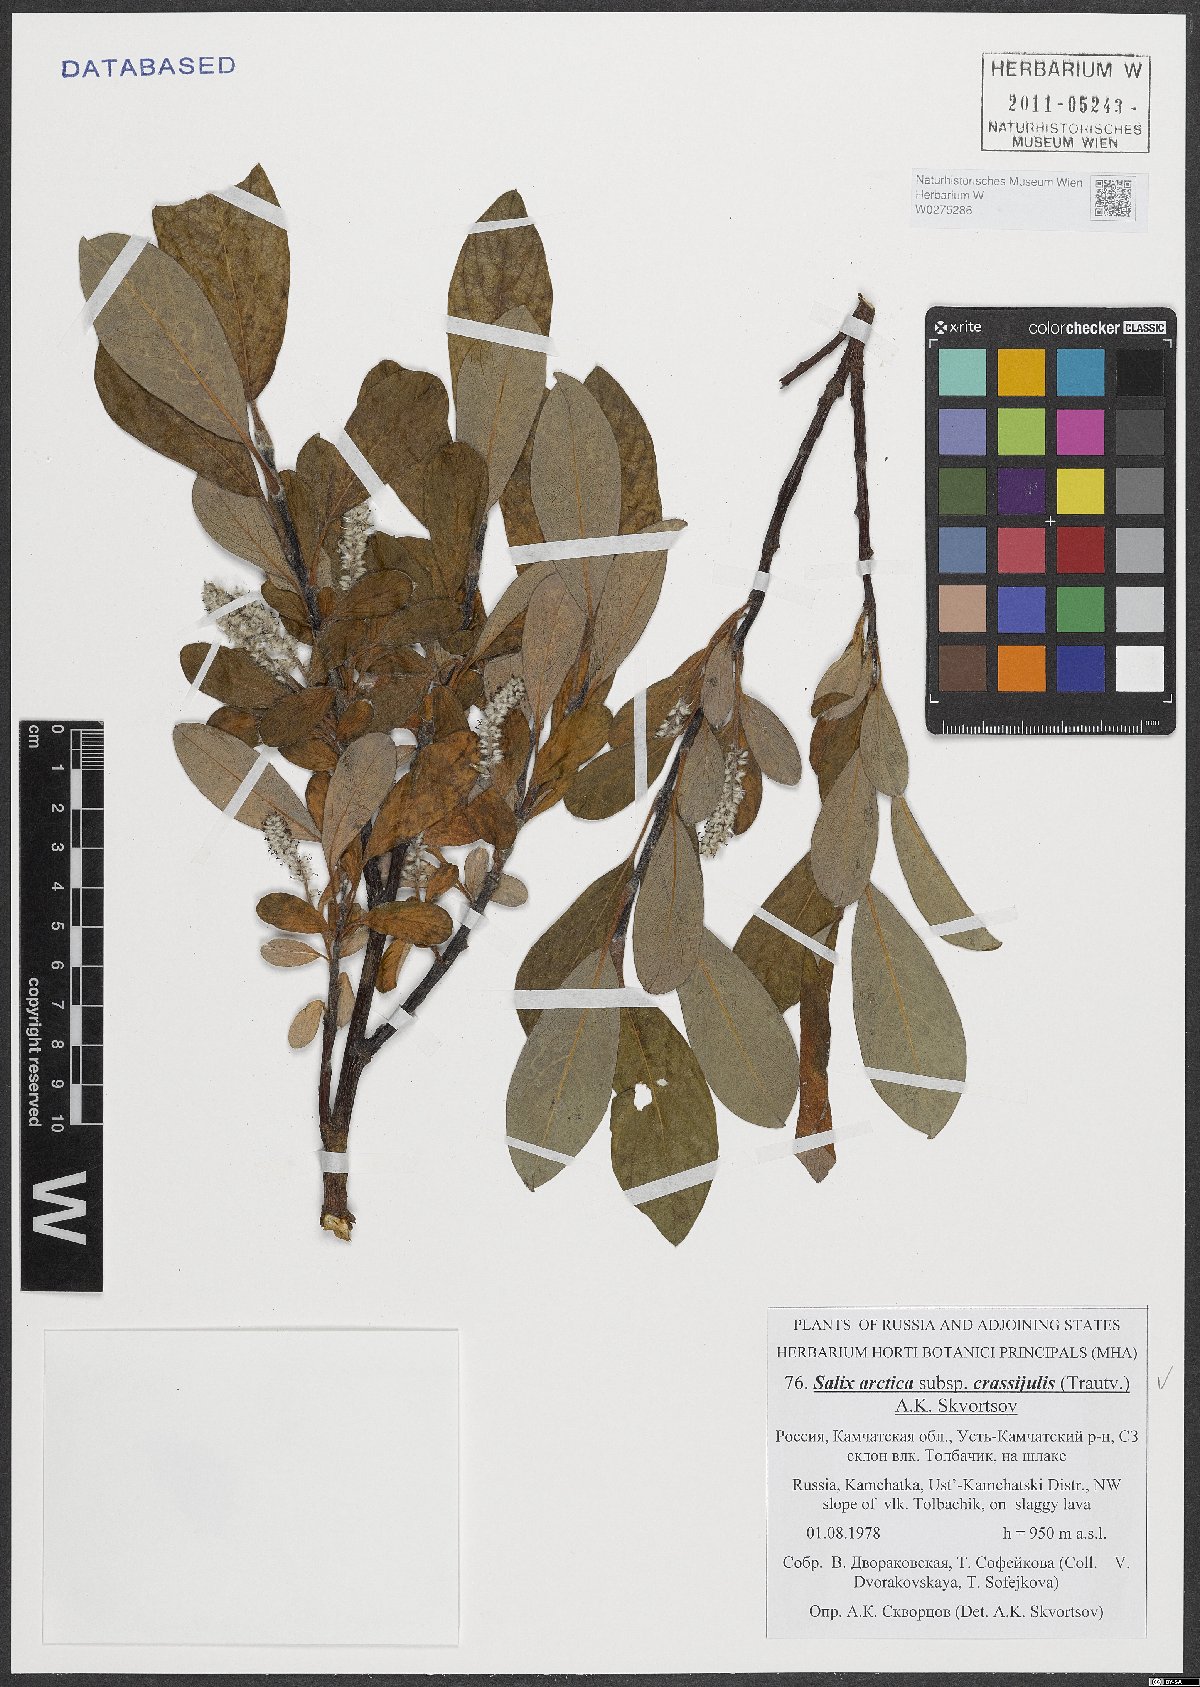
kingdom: Plantae
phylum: Tracheophyta
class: Magnoliopsida
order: Malpighiales
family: Salicaceae
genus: Salix
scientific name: Salix arctica
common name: Arctic willow
